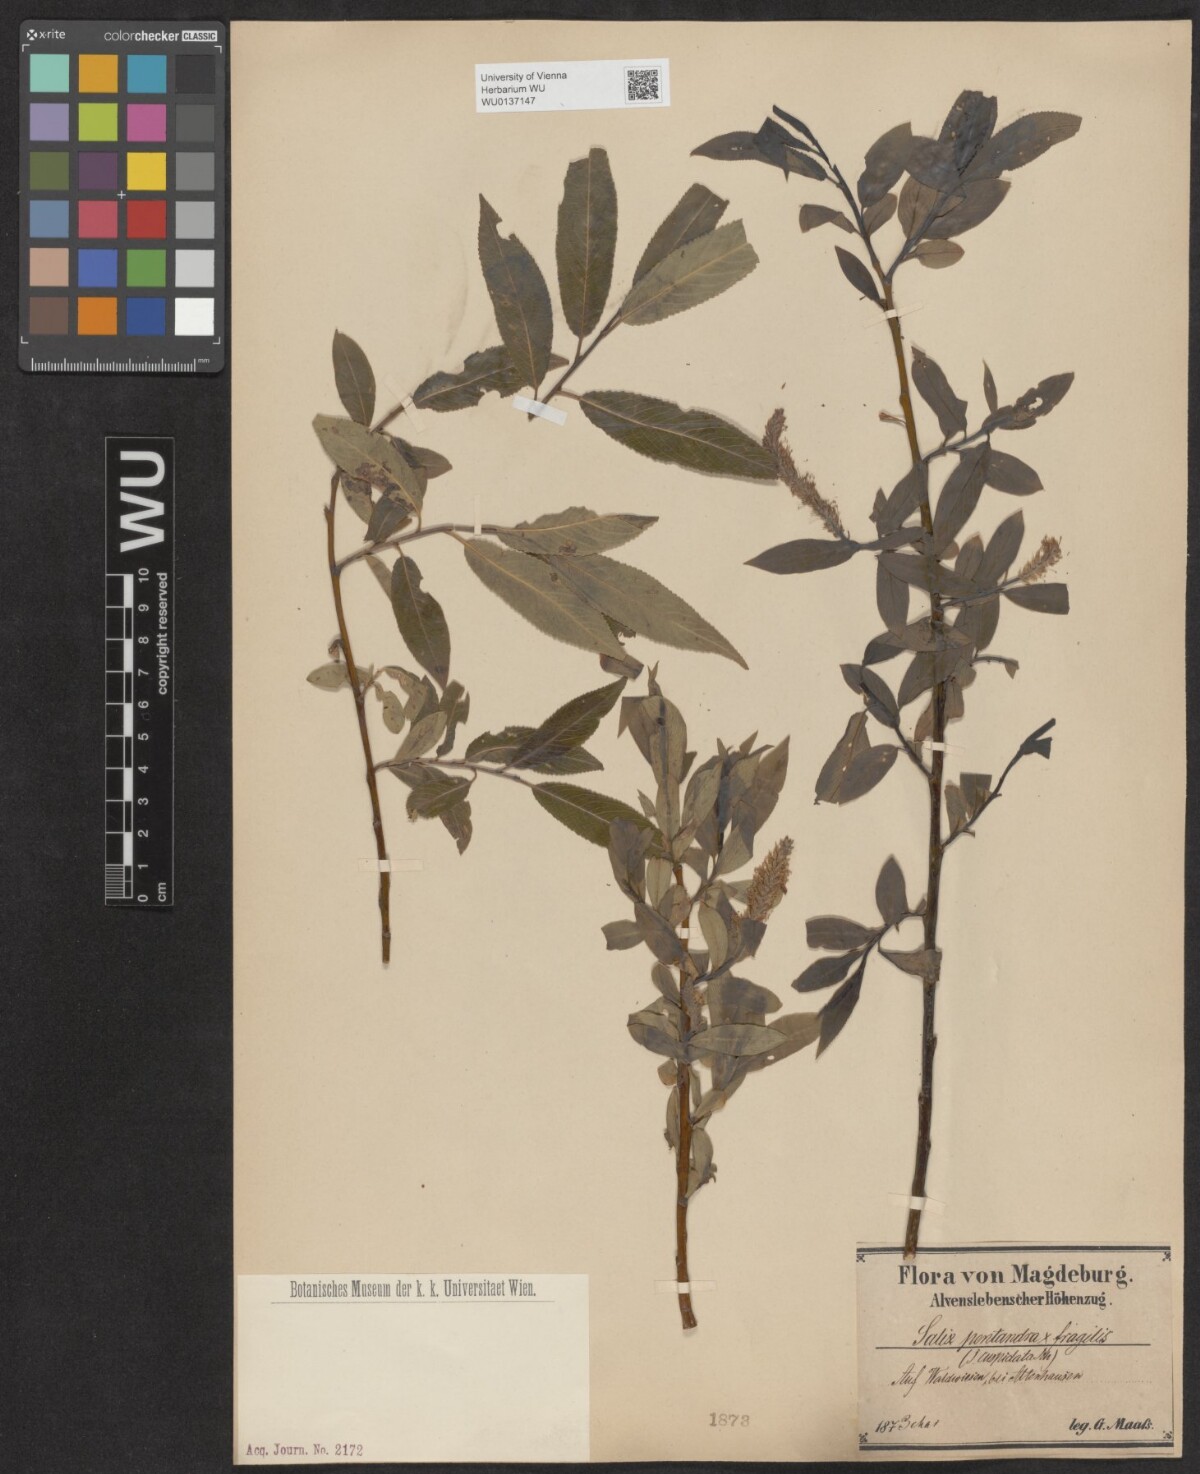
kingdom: Plantae
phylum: Tracheophyta
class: Magnoliopsida
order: Malpighiales
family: Salicaceae
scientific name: Salicaceae
